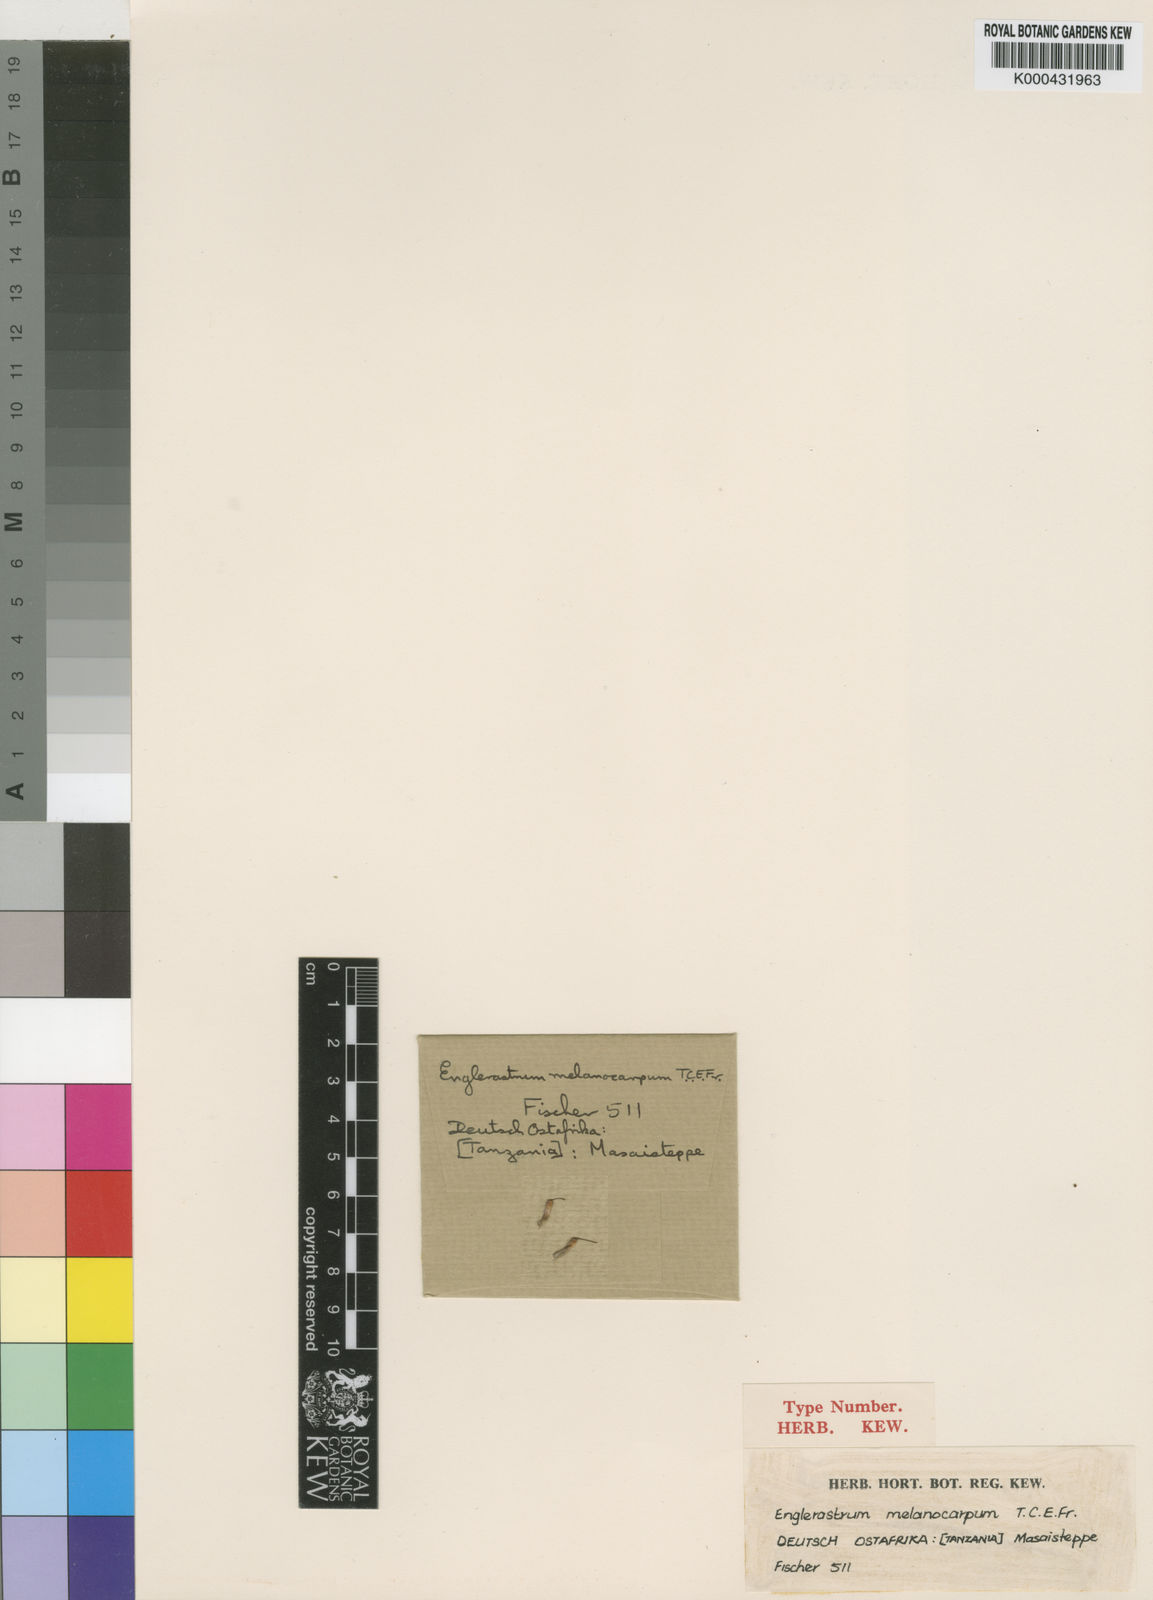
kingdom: Plantae
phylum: Tracheophyta
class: Magnoliopsida
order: Lamiales
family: Lamiaceae
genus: Plectranthus
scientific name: Plectranthus
